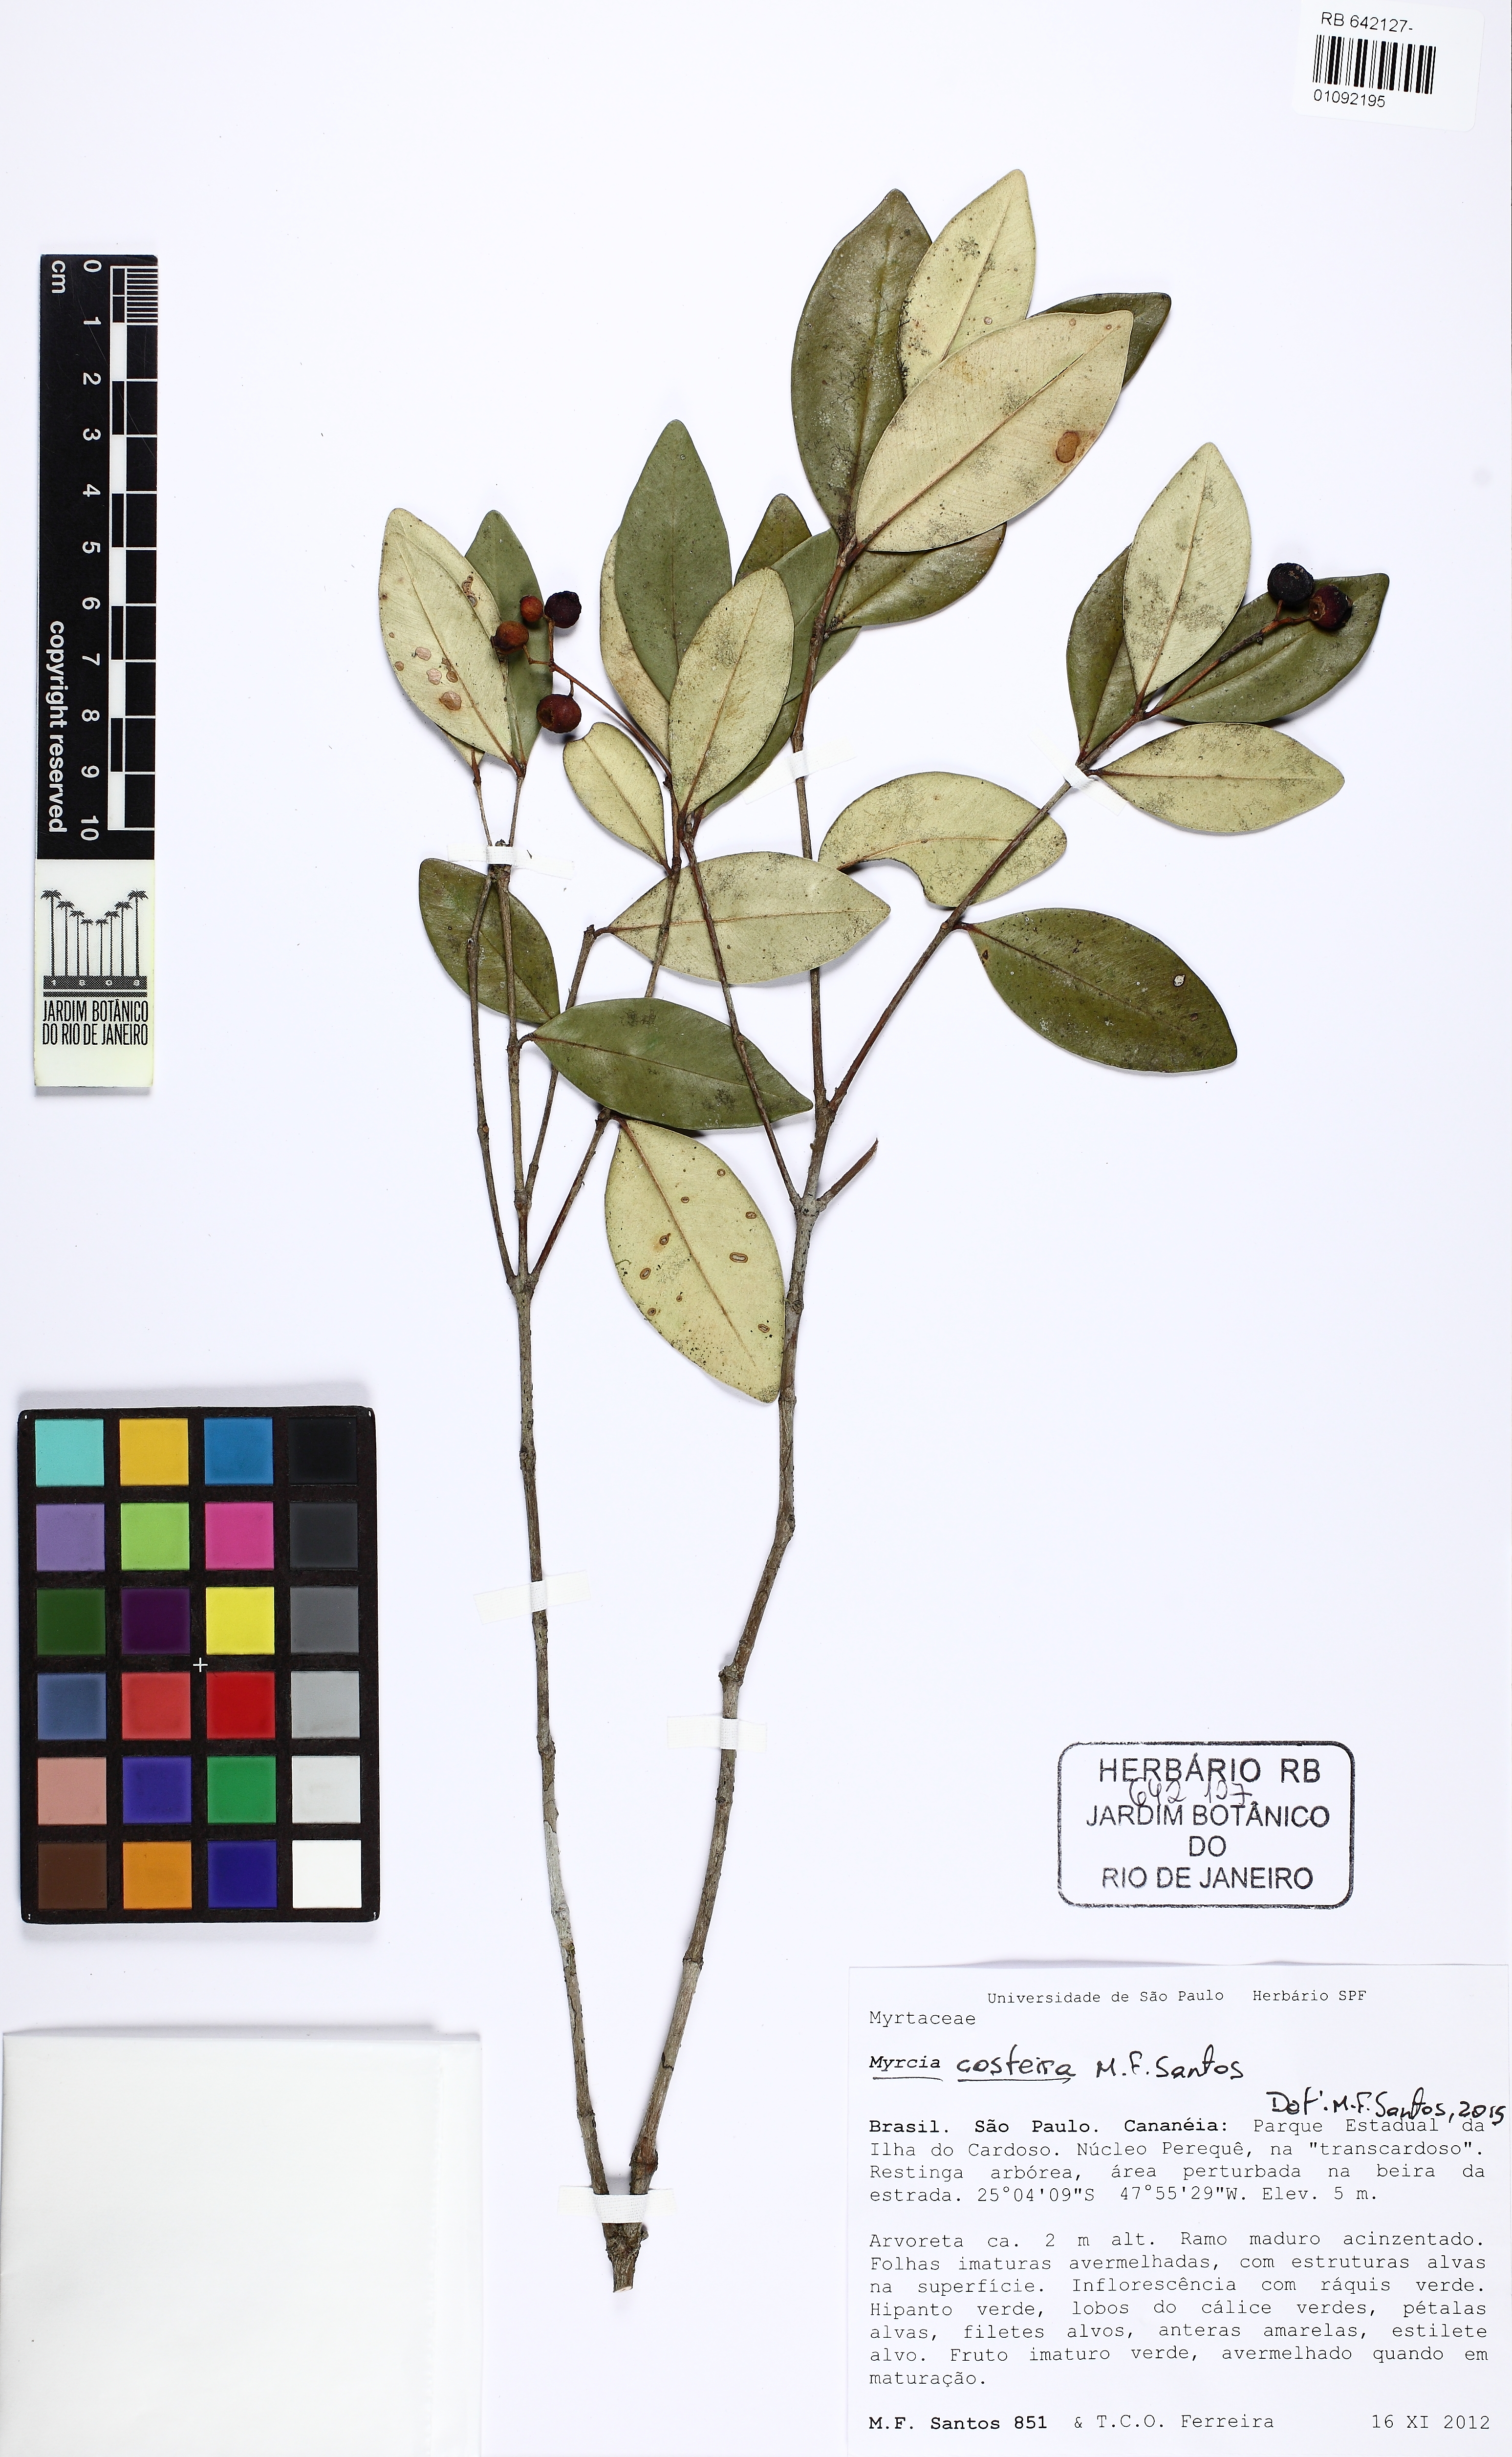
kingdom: Plantae
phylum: Tracheophyta
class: Magnoliopsida
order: Myrtales
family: Myrtaceae
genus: Myrcia
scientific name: Myrcia costeira
